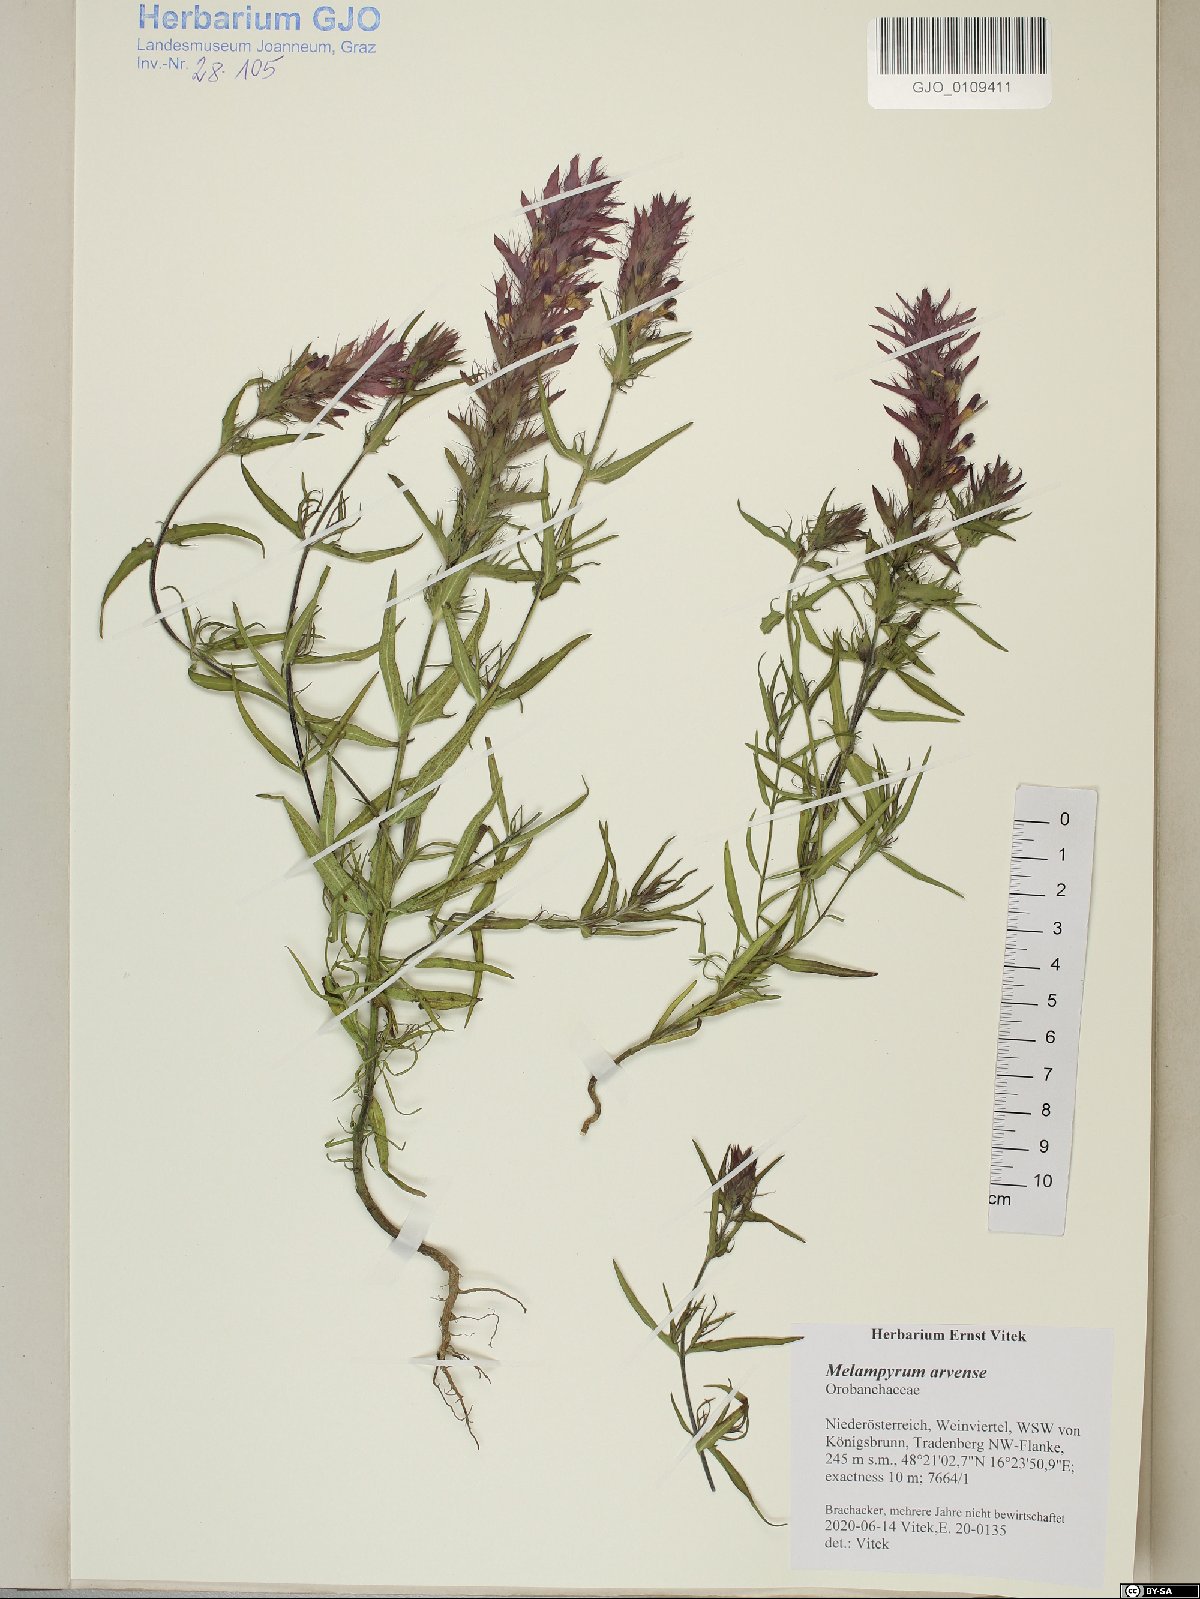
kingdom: Plantae
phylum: Tracheophyta
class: Magnoliopsida
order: Lamiales
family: Orobanchaceae
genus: Melampyrum
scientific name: Melampyrum arvense
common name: Field cow-wheat
